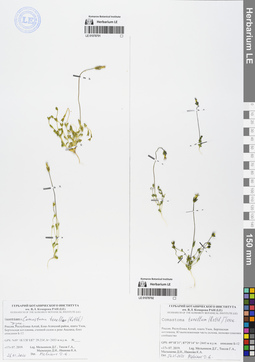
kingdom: Plantae
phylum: Tracheophyta
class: Magnoliopsida
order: Gentianales
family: Gentianaceae
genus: Comastoma
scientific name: Comastoma tenellum
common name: Dane's dwarf gentian
